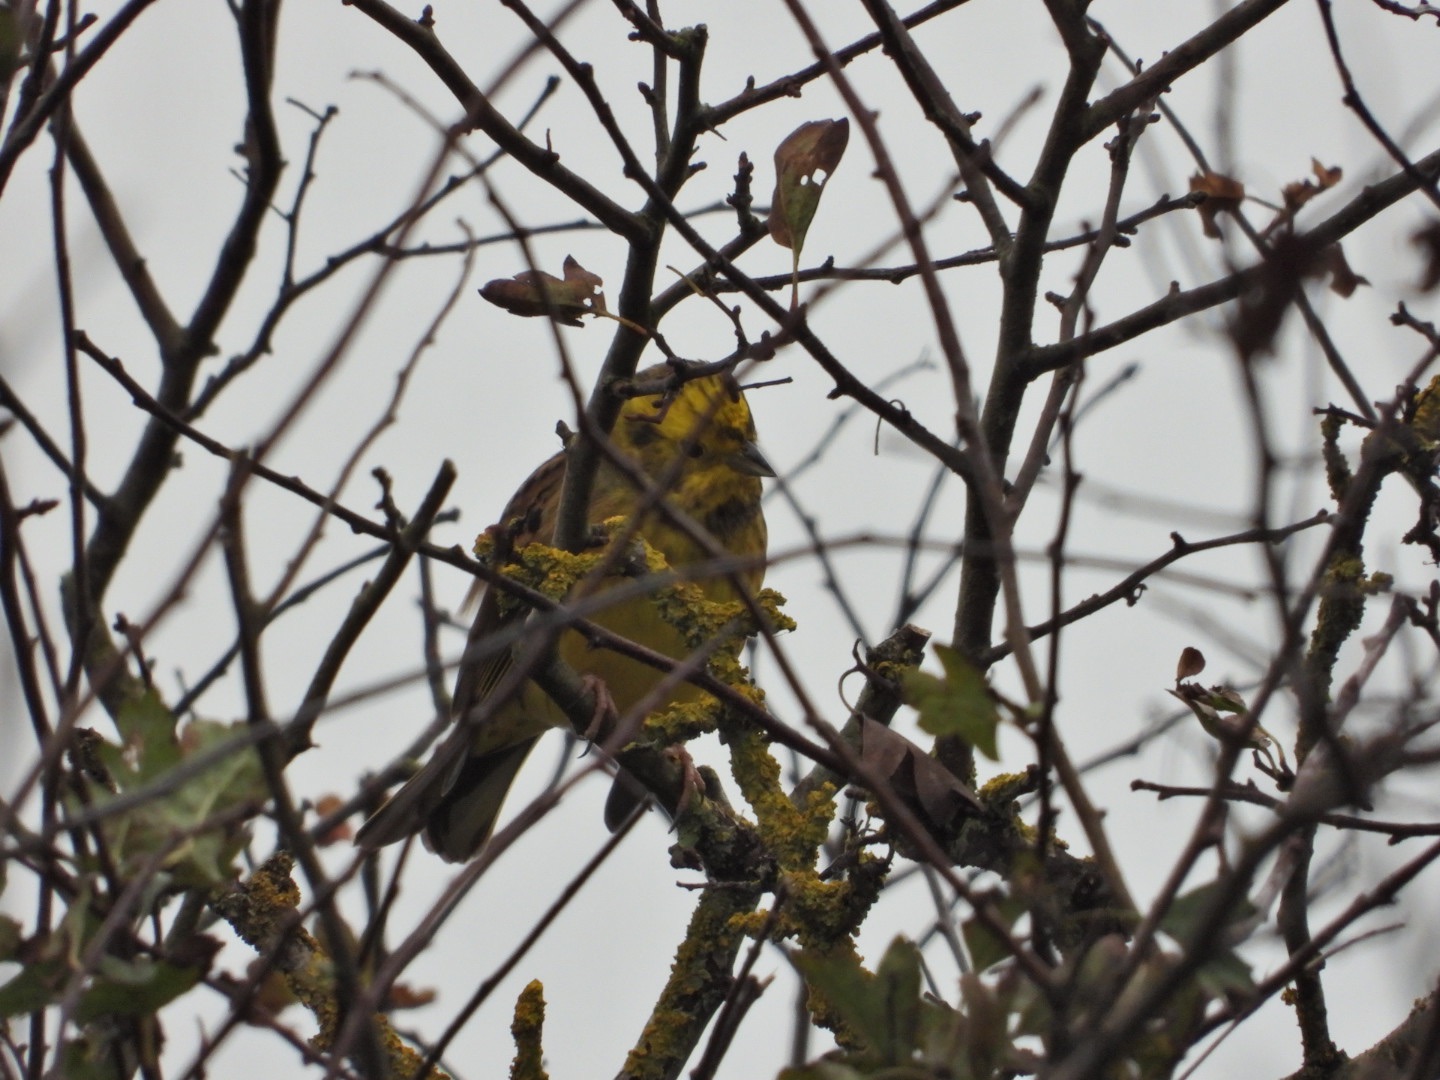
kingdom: Animalia
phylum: Chordata
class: Aves
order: Passeriformes
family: Emberizidae
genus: Emberiza
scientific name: Emberiza citrinella
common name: Gulspurv
